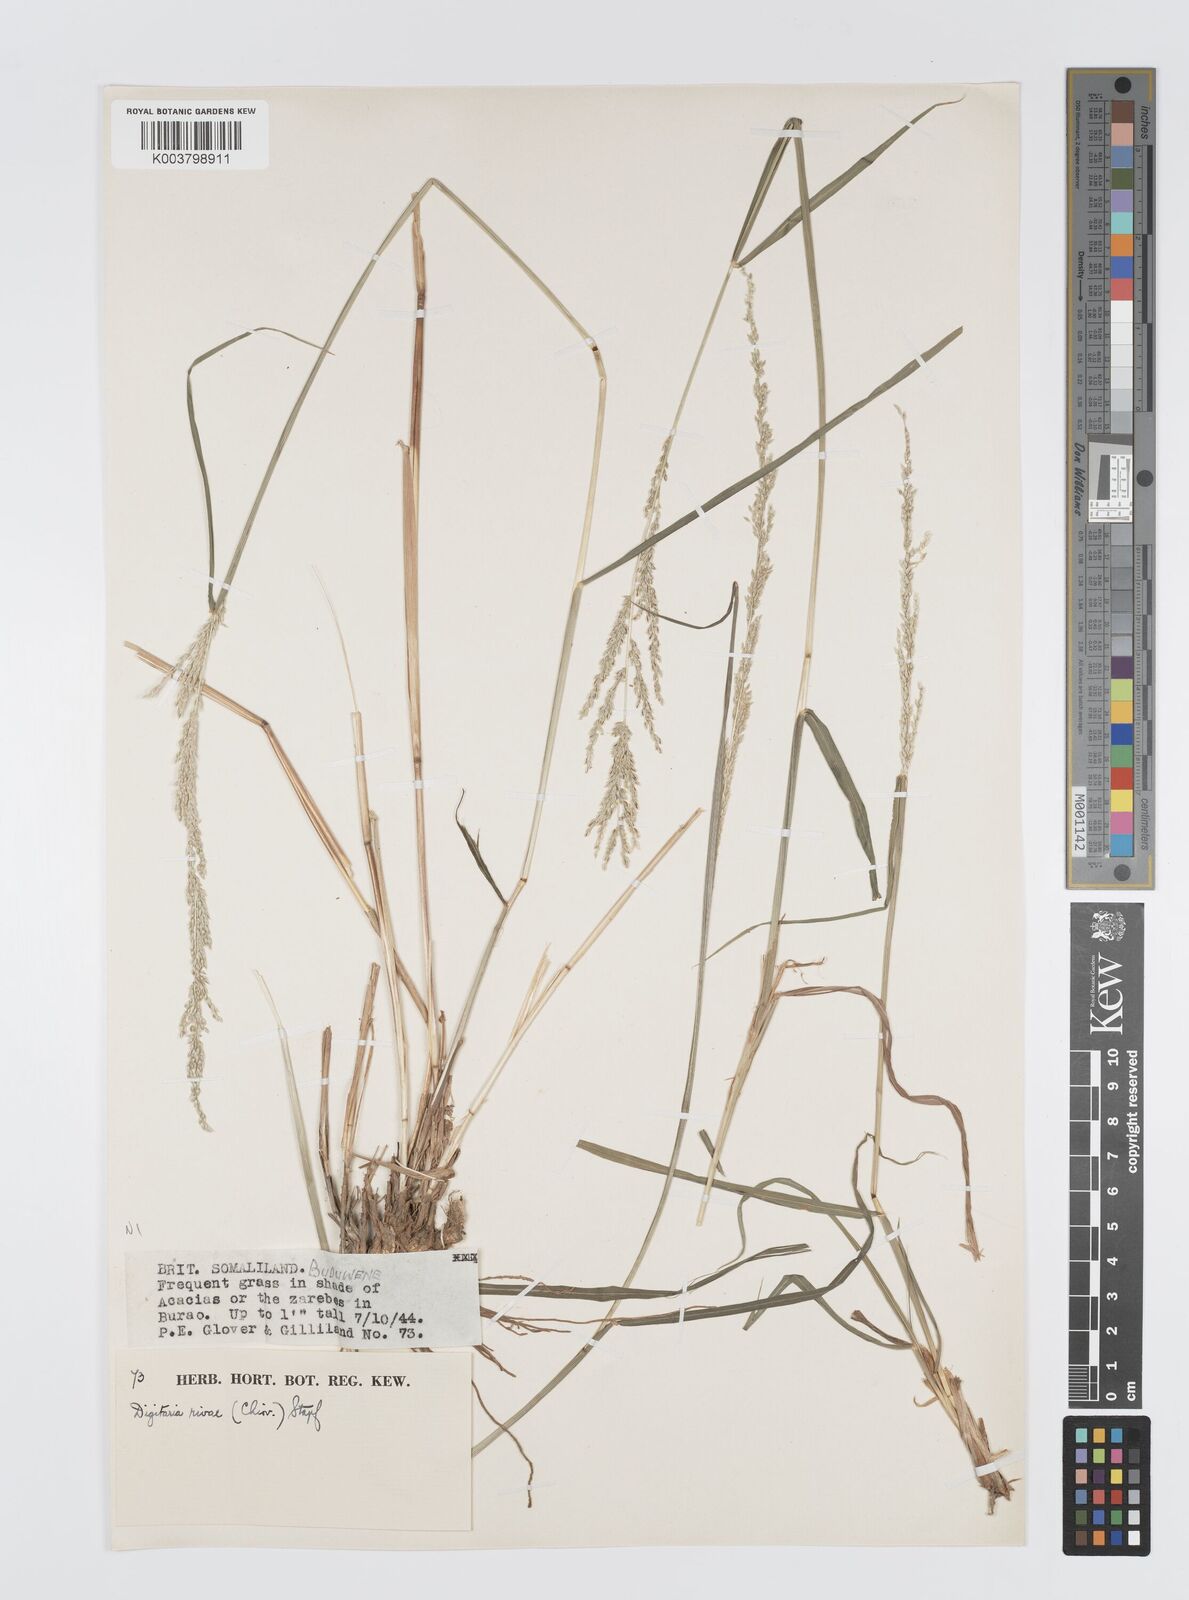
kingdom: Plantae
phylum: Tracheophyta
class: Liliopsida
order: Poales
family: Poaceae
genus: Digitaria
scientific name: Digitaria rivae
